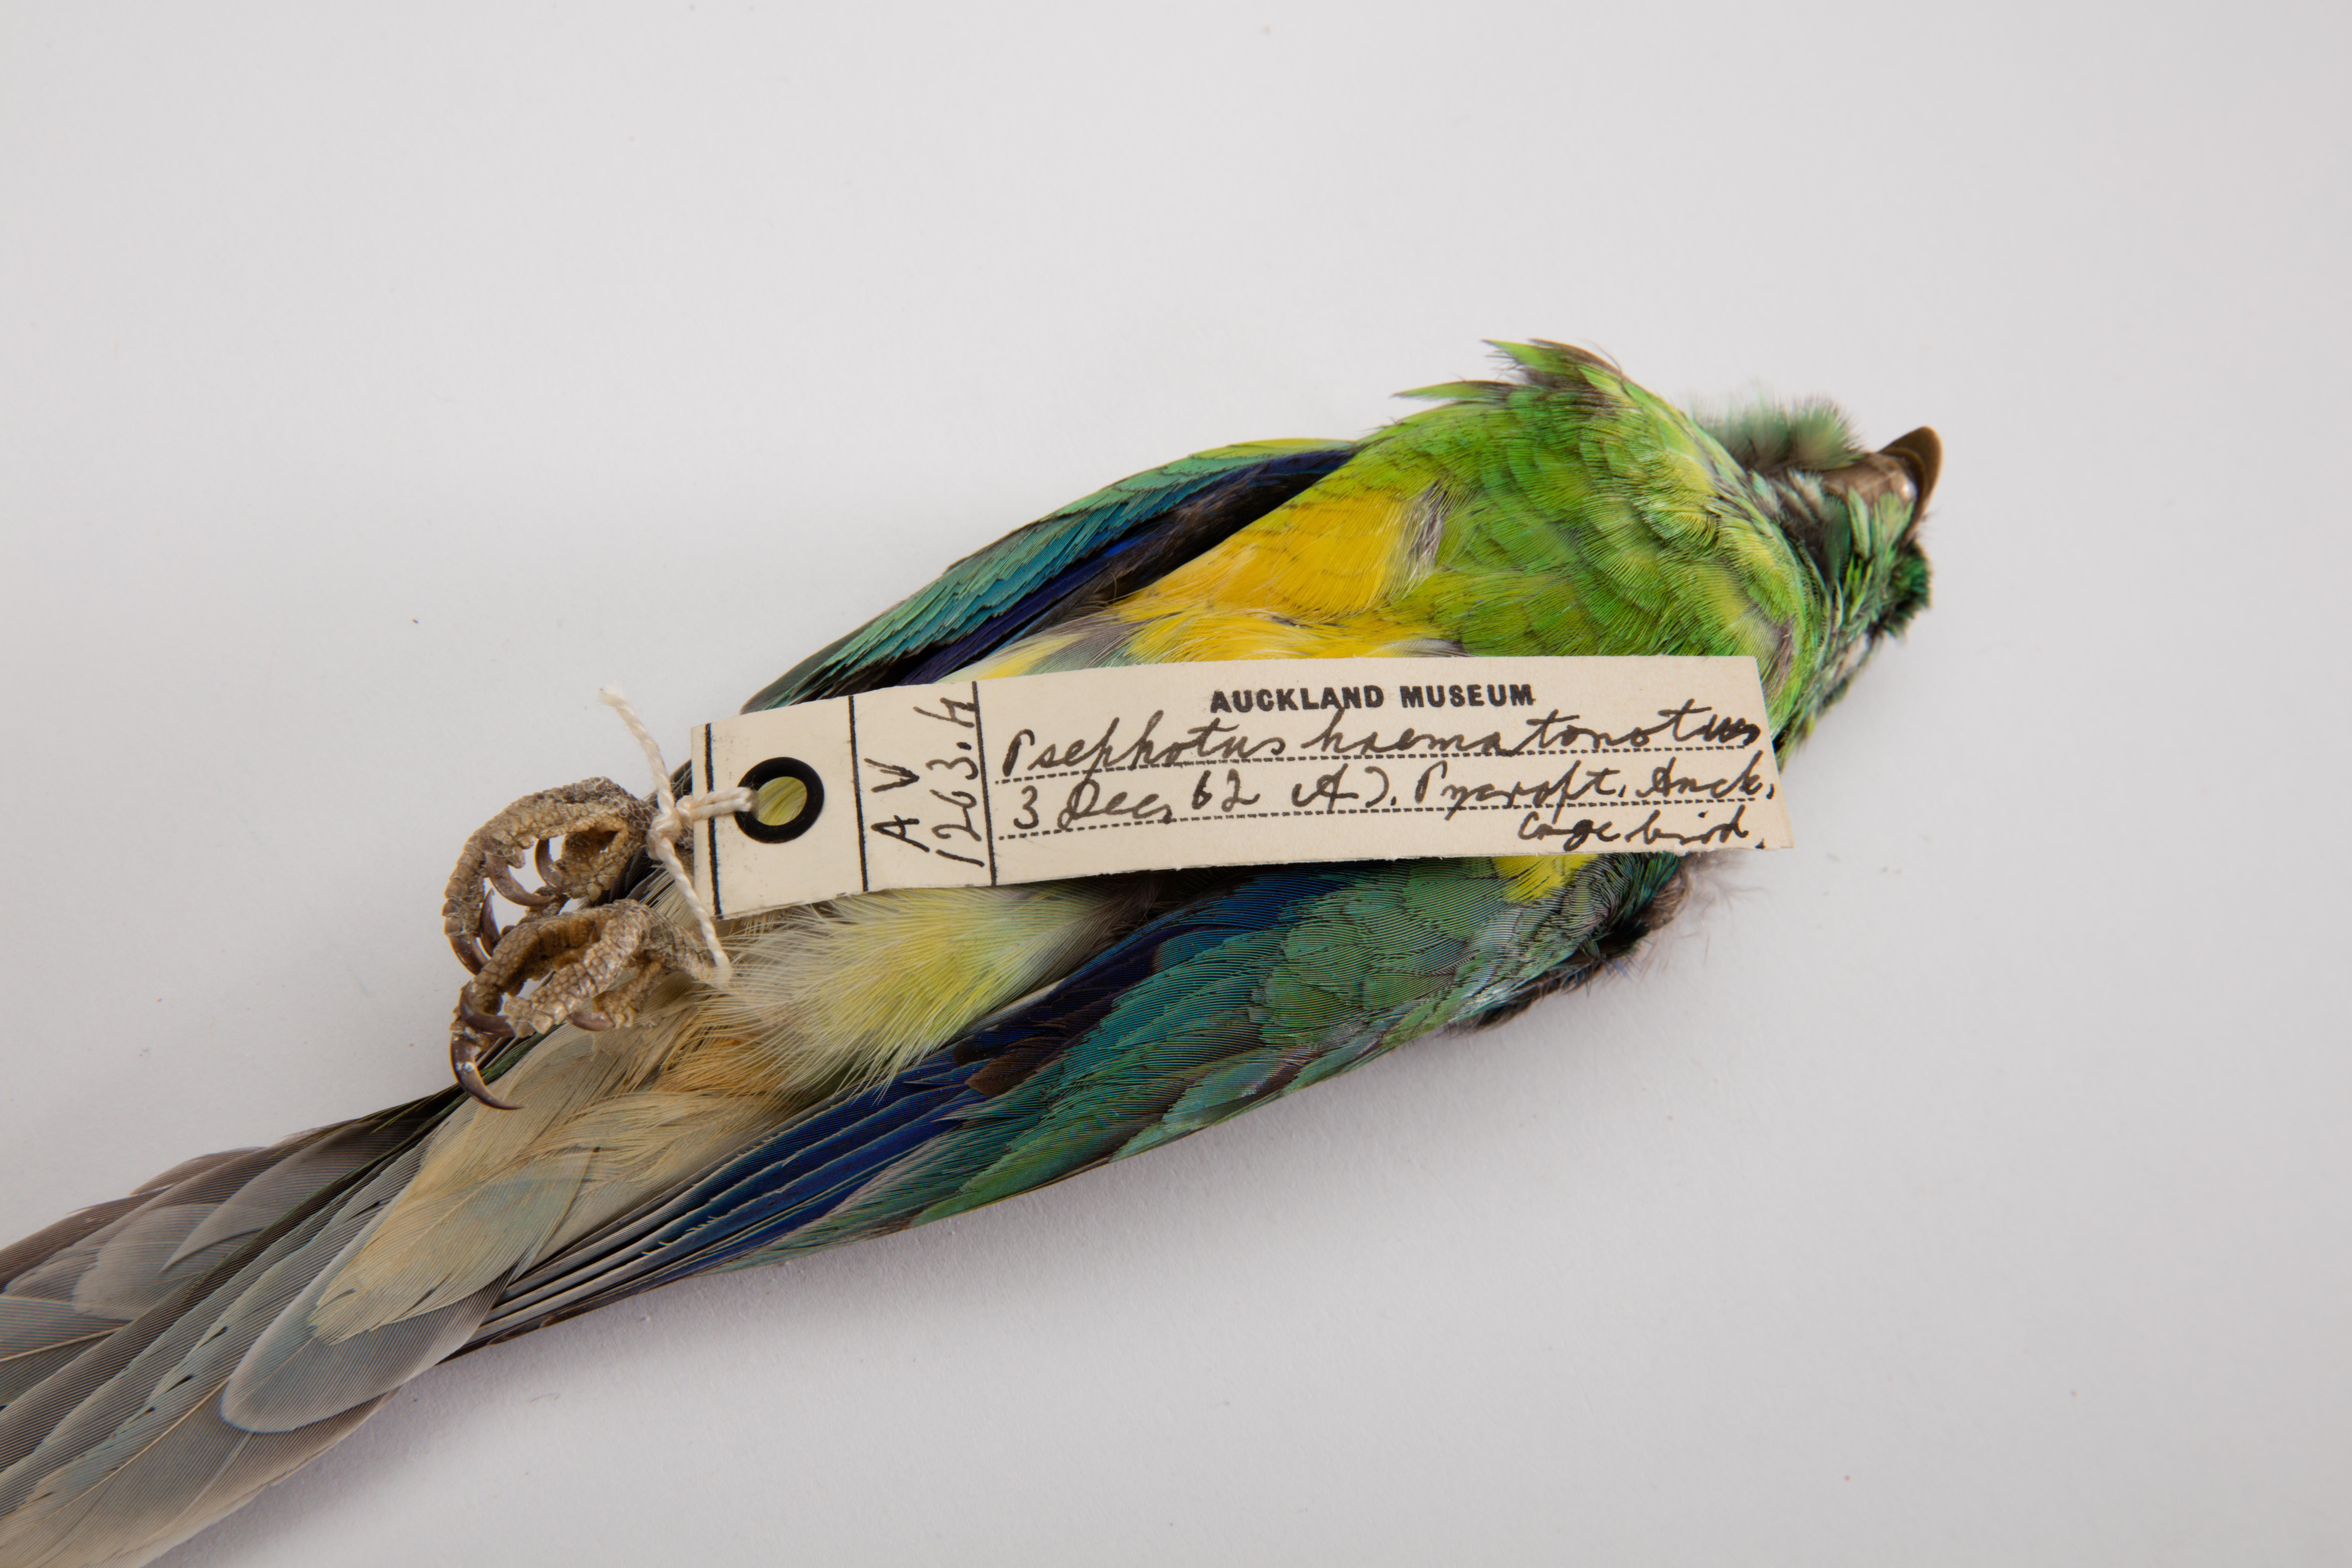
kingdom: Animalia
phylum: Chordata
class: Aves
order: Psittaciformes
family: Psittacidae
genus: Psephotus
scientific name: Psephotus haematonotus
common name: Red-rumped parrot
